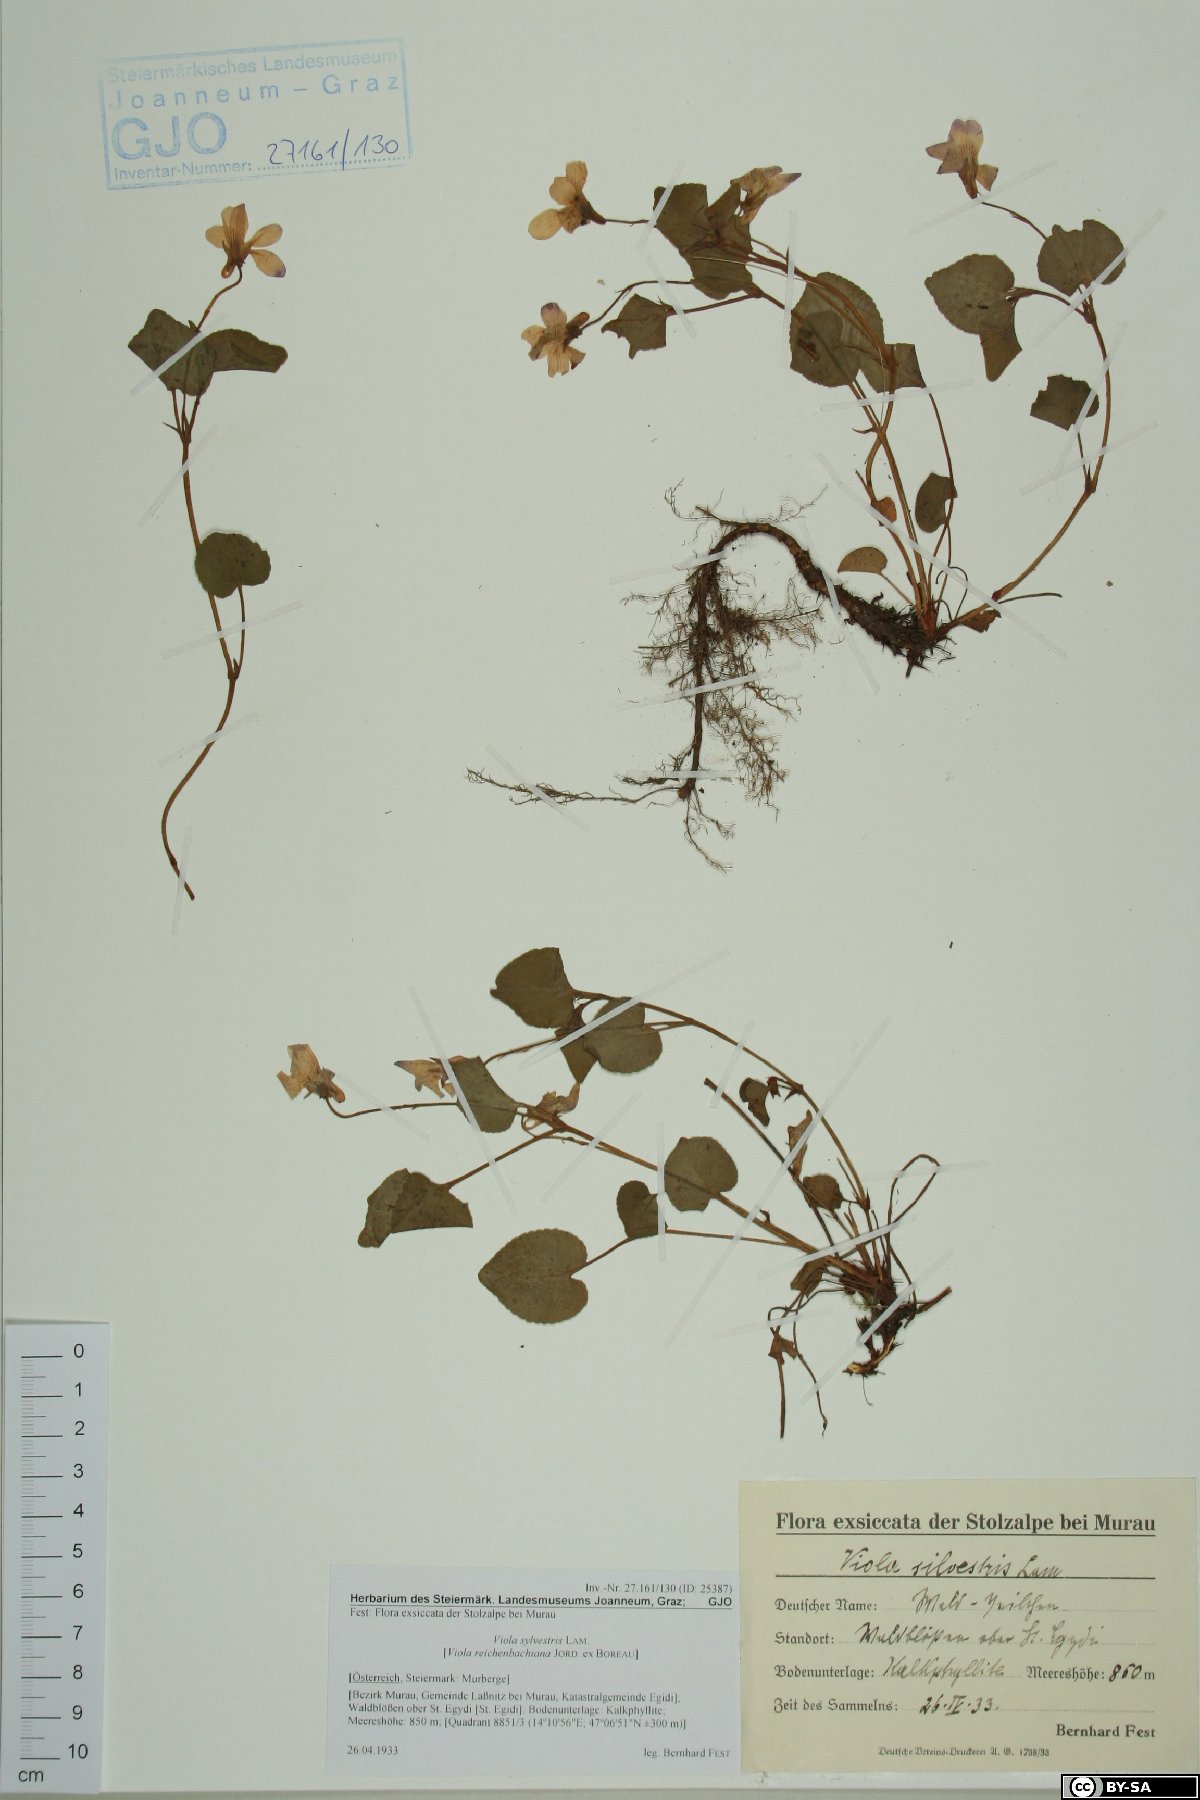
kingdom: Plantae
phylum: Tracheophyta
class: Magnoliopsida
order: Malpighiales
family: Violaceae
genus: Viola
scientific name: Viola canina
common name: Heath dog-violet
